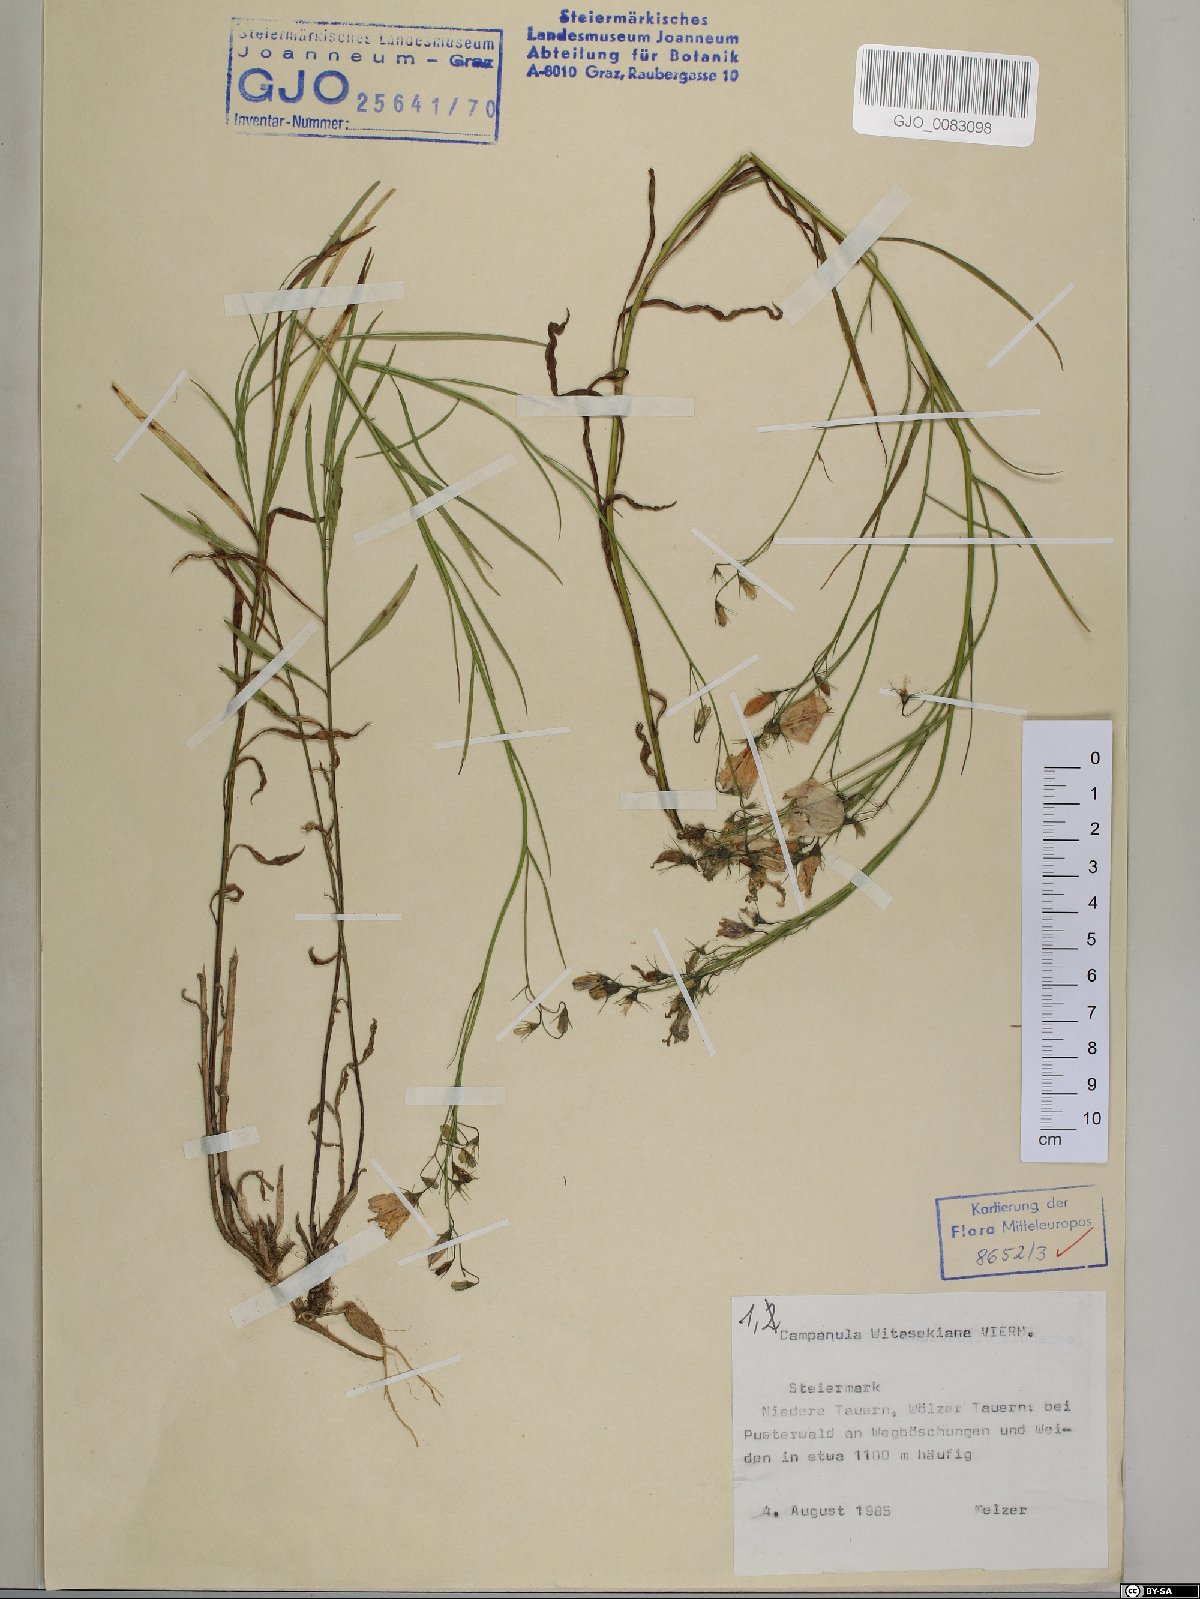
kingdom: Plantae
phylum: Tracheophyta
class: Magnoliopsida
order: Asterales
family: Campanulaceae
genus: Campanula
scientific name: Campanula witasekiana
